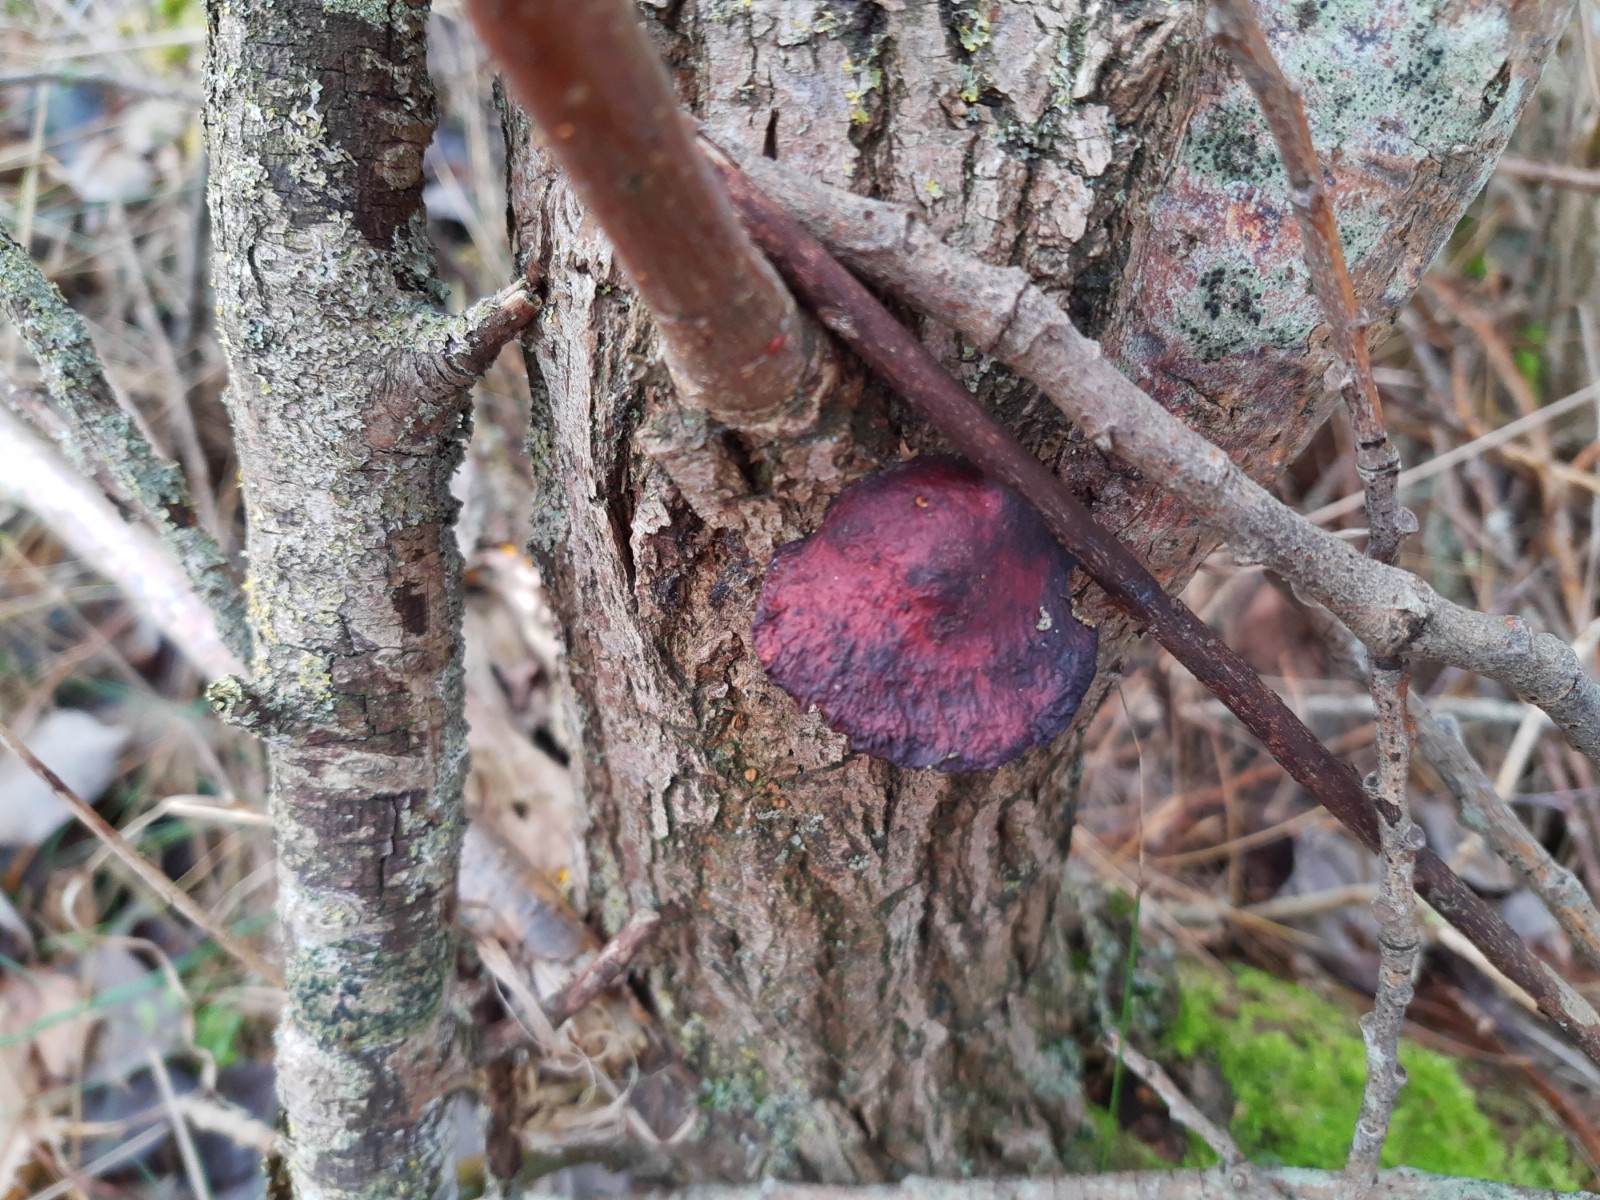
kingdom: Fungi
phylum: Basidiomycota
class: Agaricomycetes
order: Polyporales
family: Polyporaceae
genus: Daedaleopsis
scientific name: Daedaleopsis confragosa
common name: rødmende læderporesvamp
